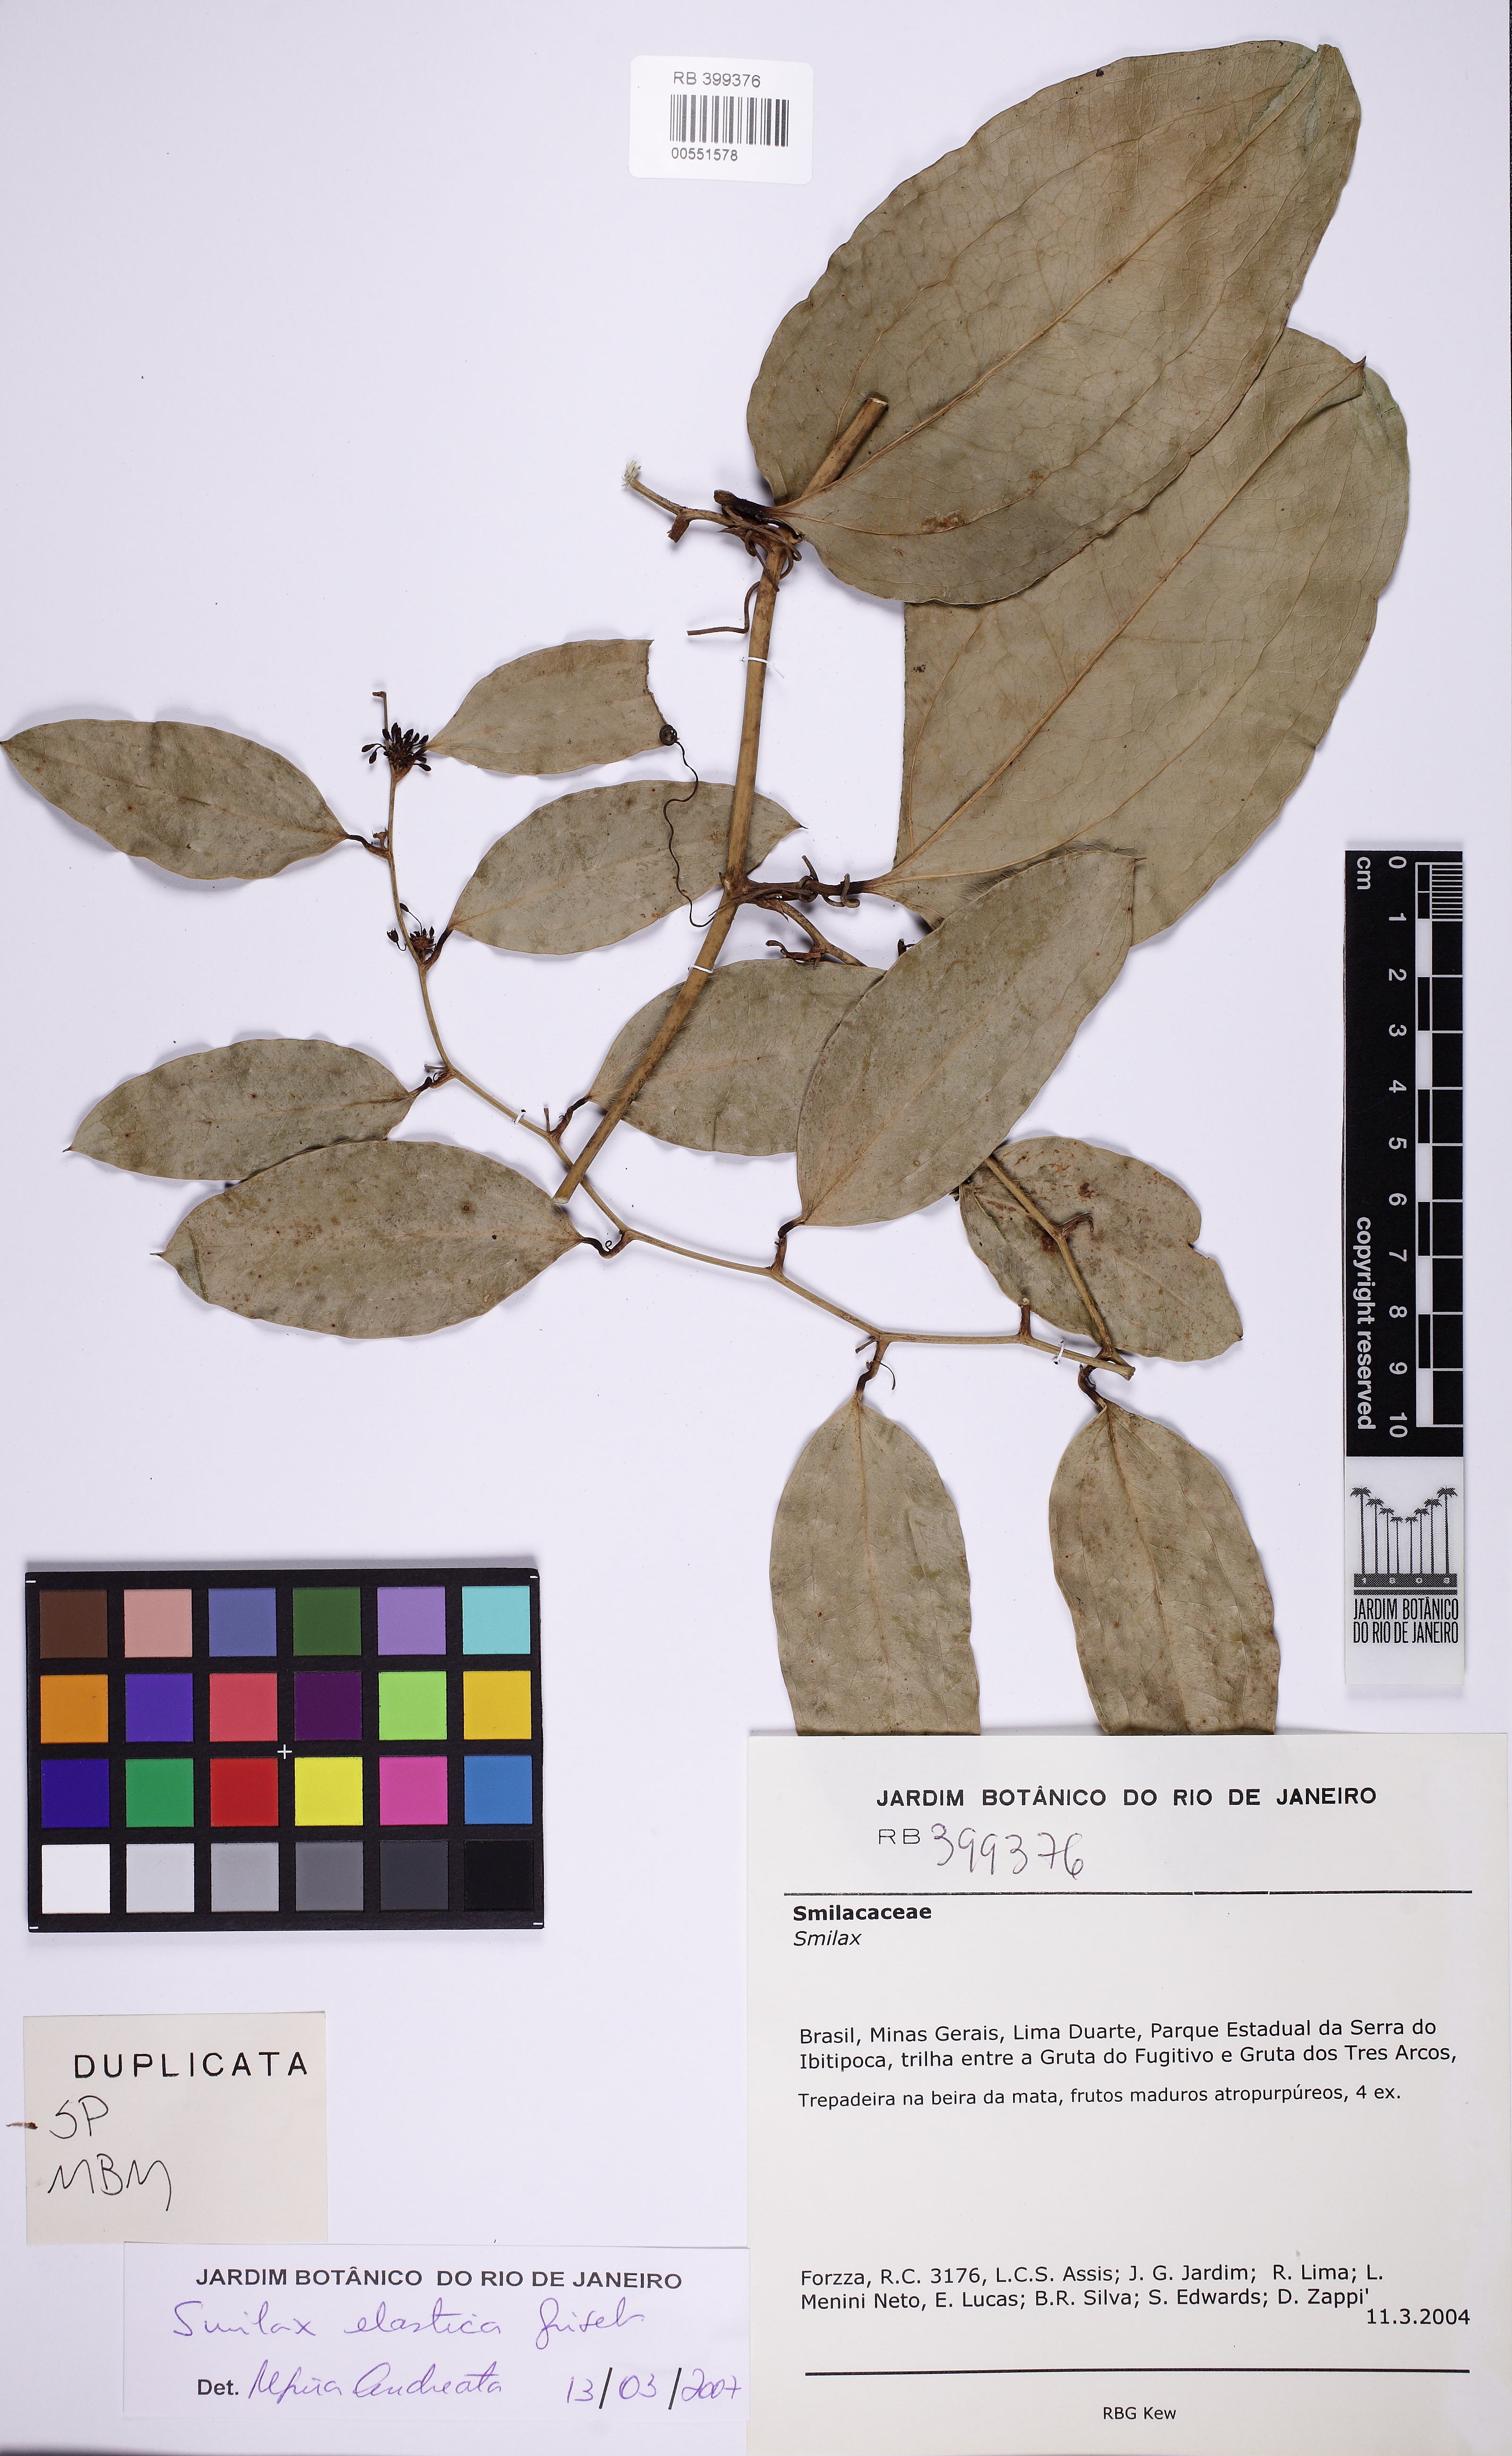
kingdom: Plantae
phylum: Tracheophyta
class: Liliopsida
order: Liliales
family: Smilacaceae
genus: Smilax
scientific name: Smilax elastica
